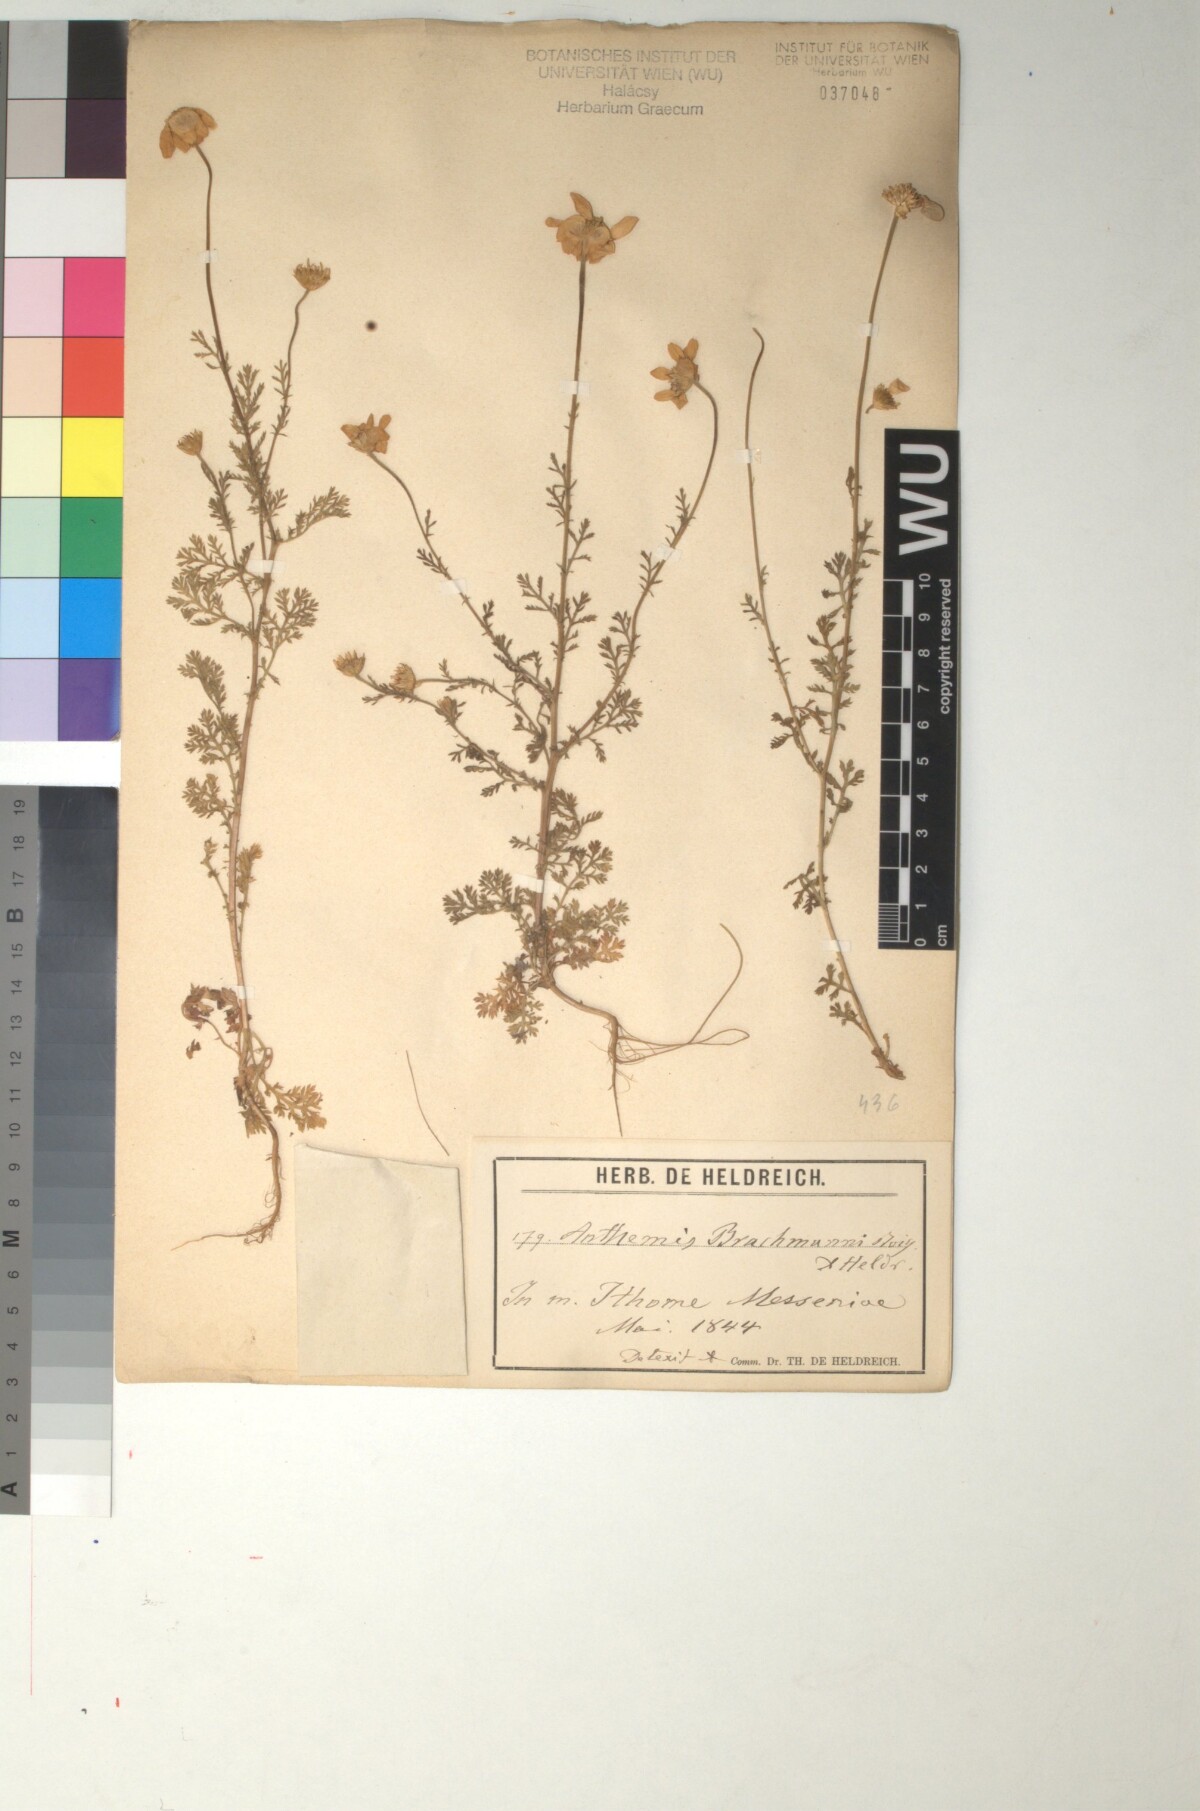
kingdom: Plantae
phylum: Tracheophyta
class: Magnoliopsida
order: Asterales
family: Asteraceae
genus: Cota
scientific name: Cota brachmanni
